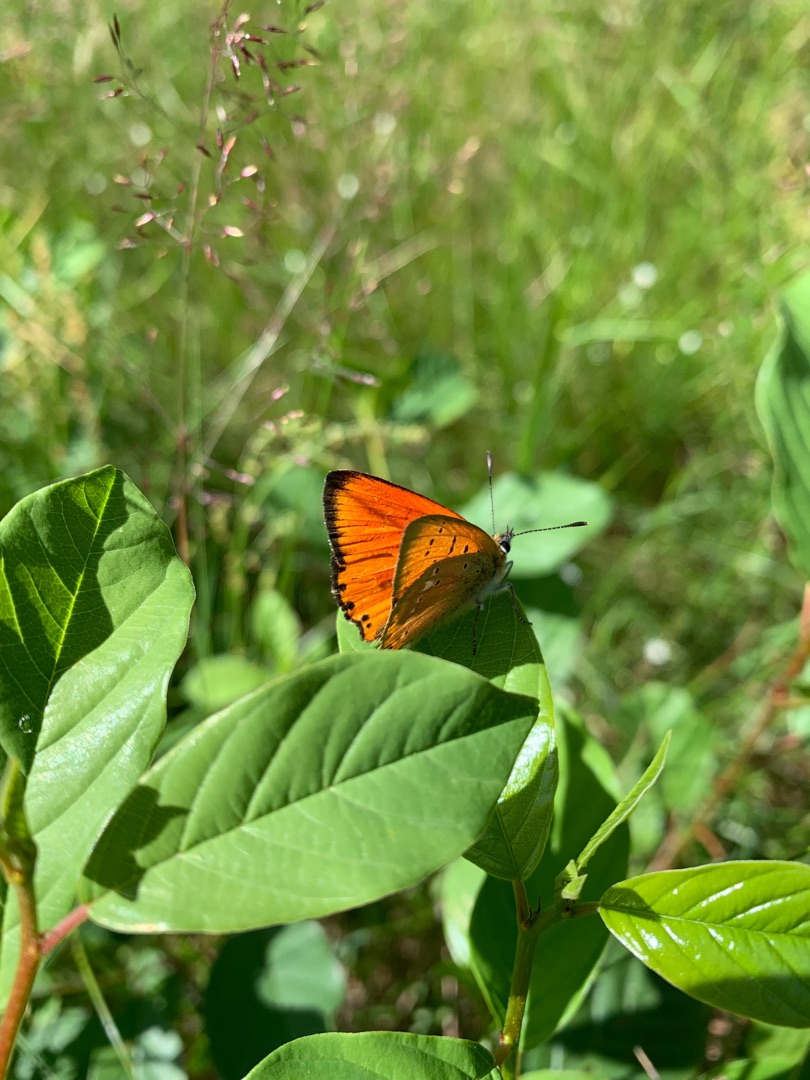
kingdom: Animalia
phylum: Arthropoda
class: Insecta
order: Lepidoptera
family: Lycaenidae
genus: Lycaena
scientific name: Lycaena virgaureae
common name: Dukatsommerfugl
